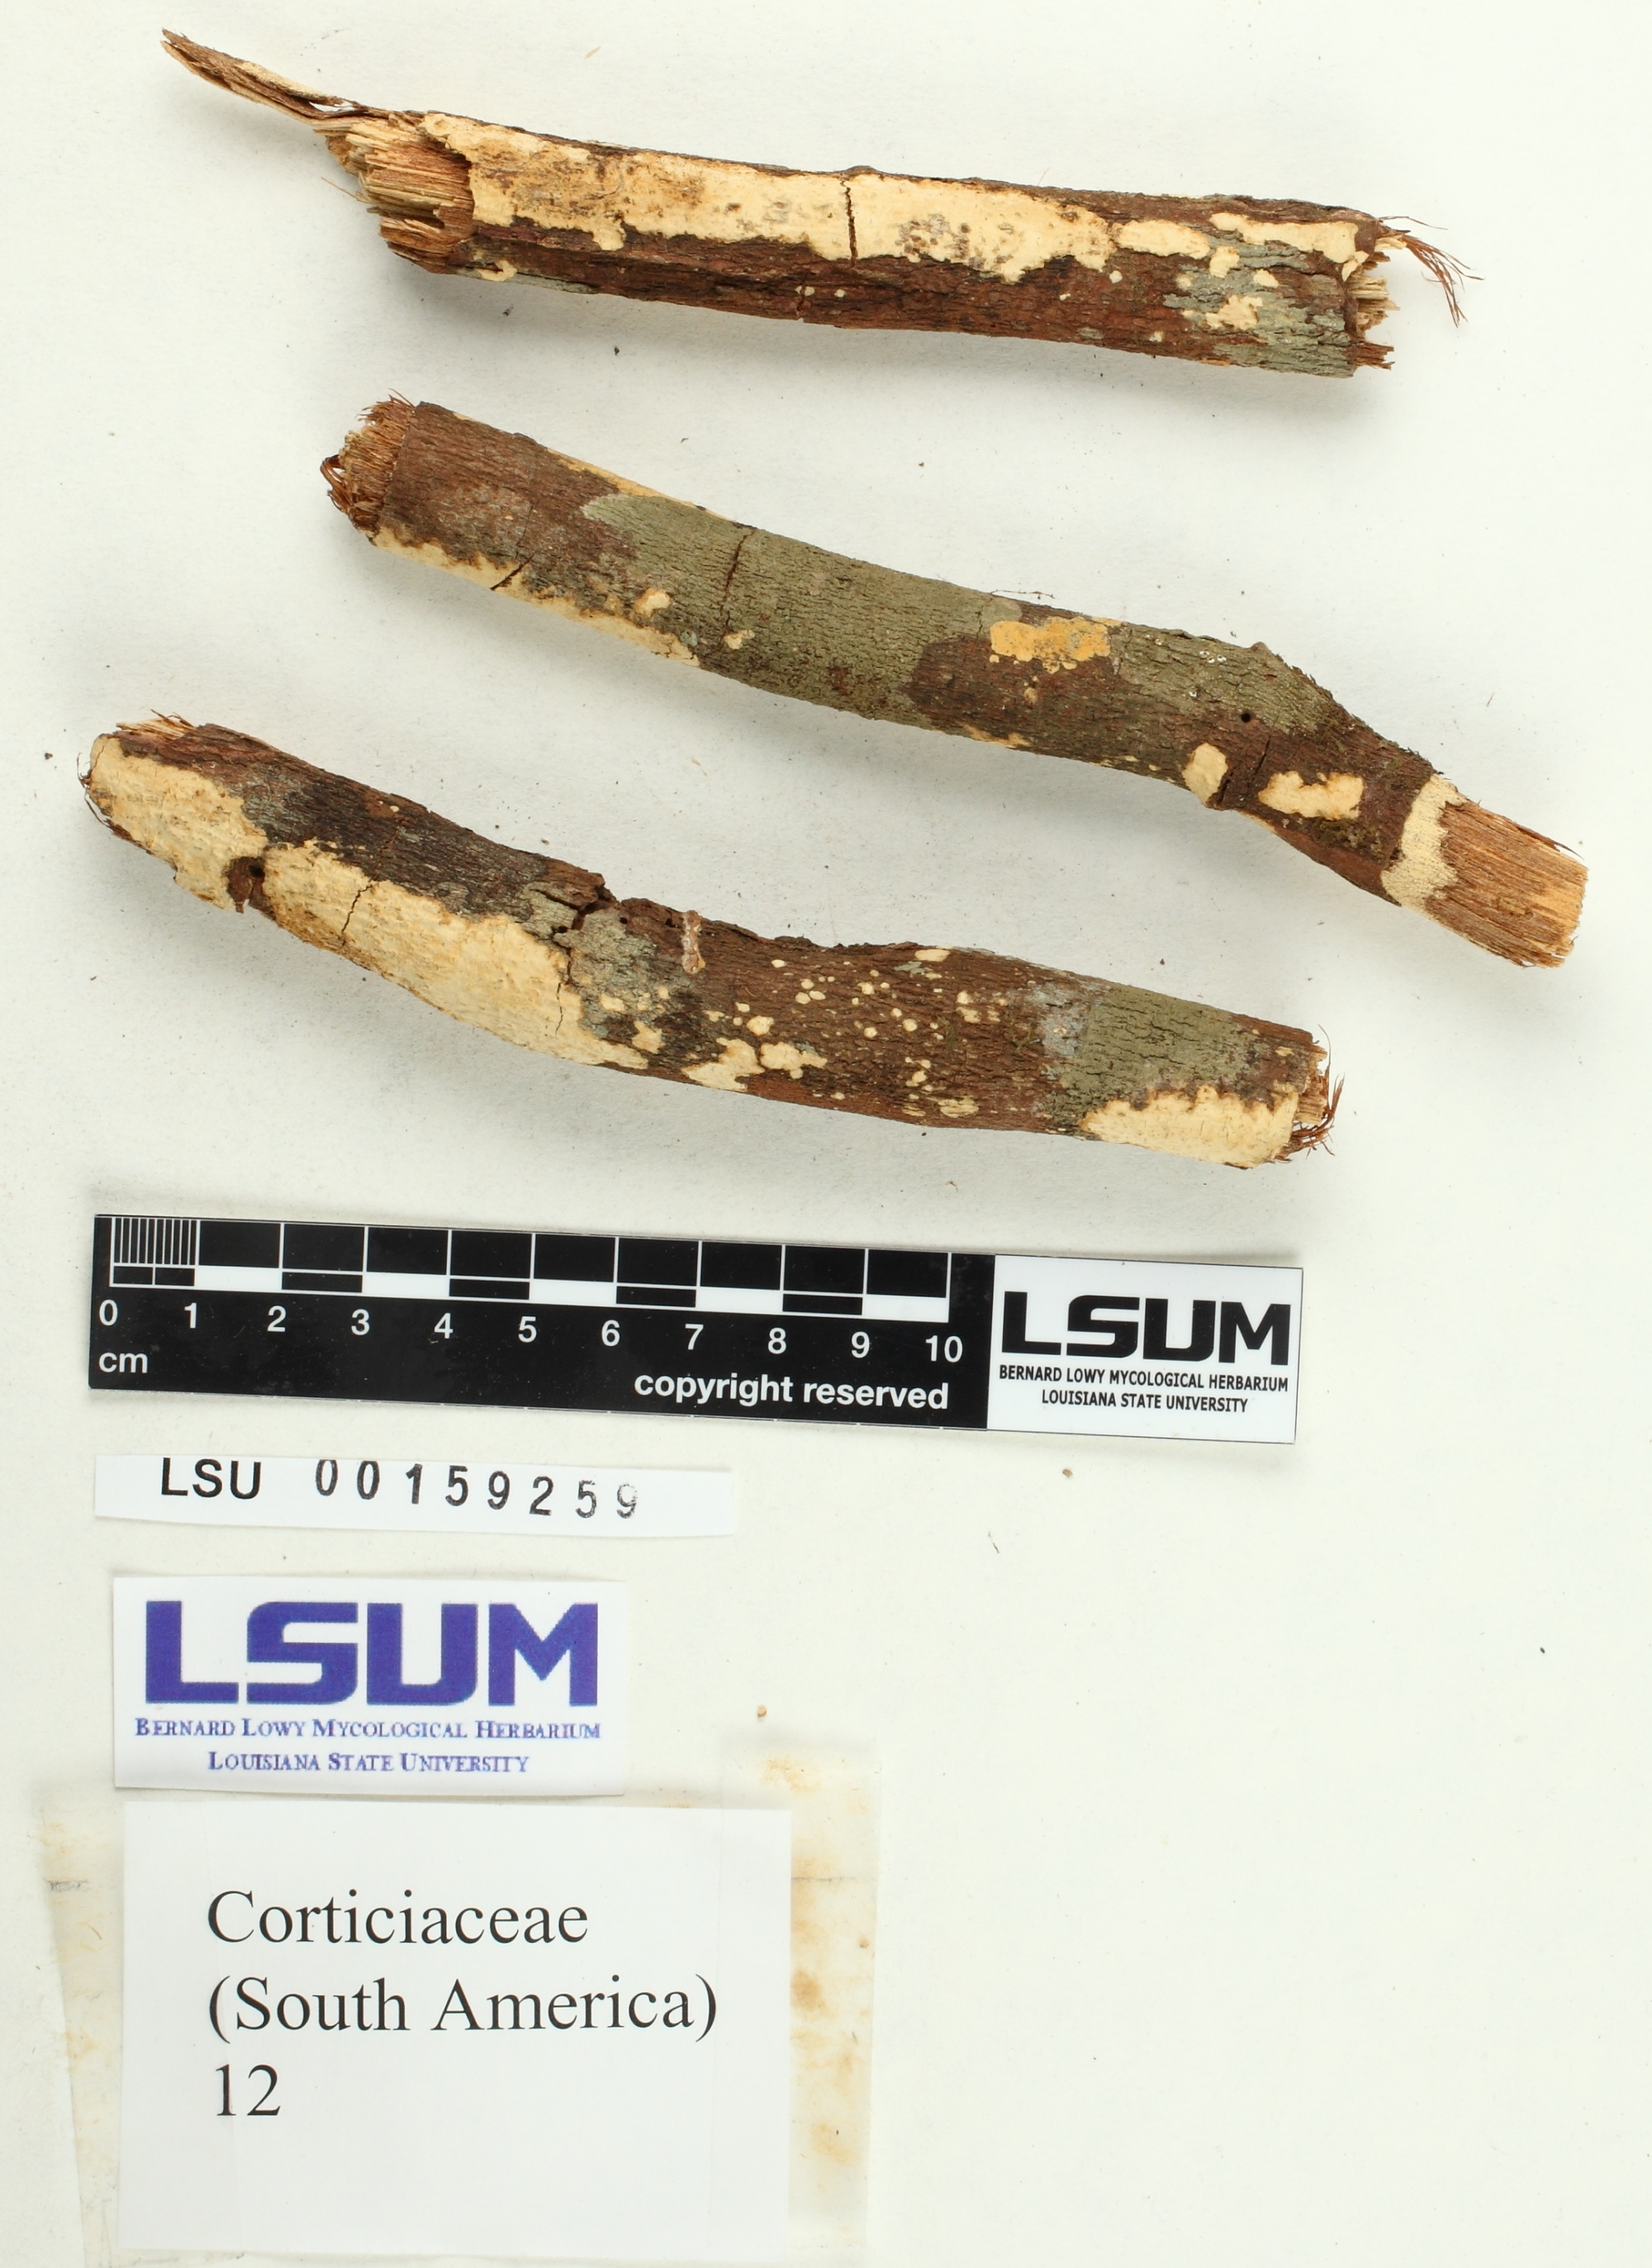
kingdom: Fungi
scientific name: Fungi
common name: Fungi
